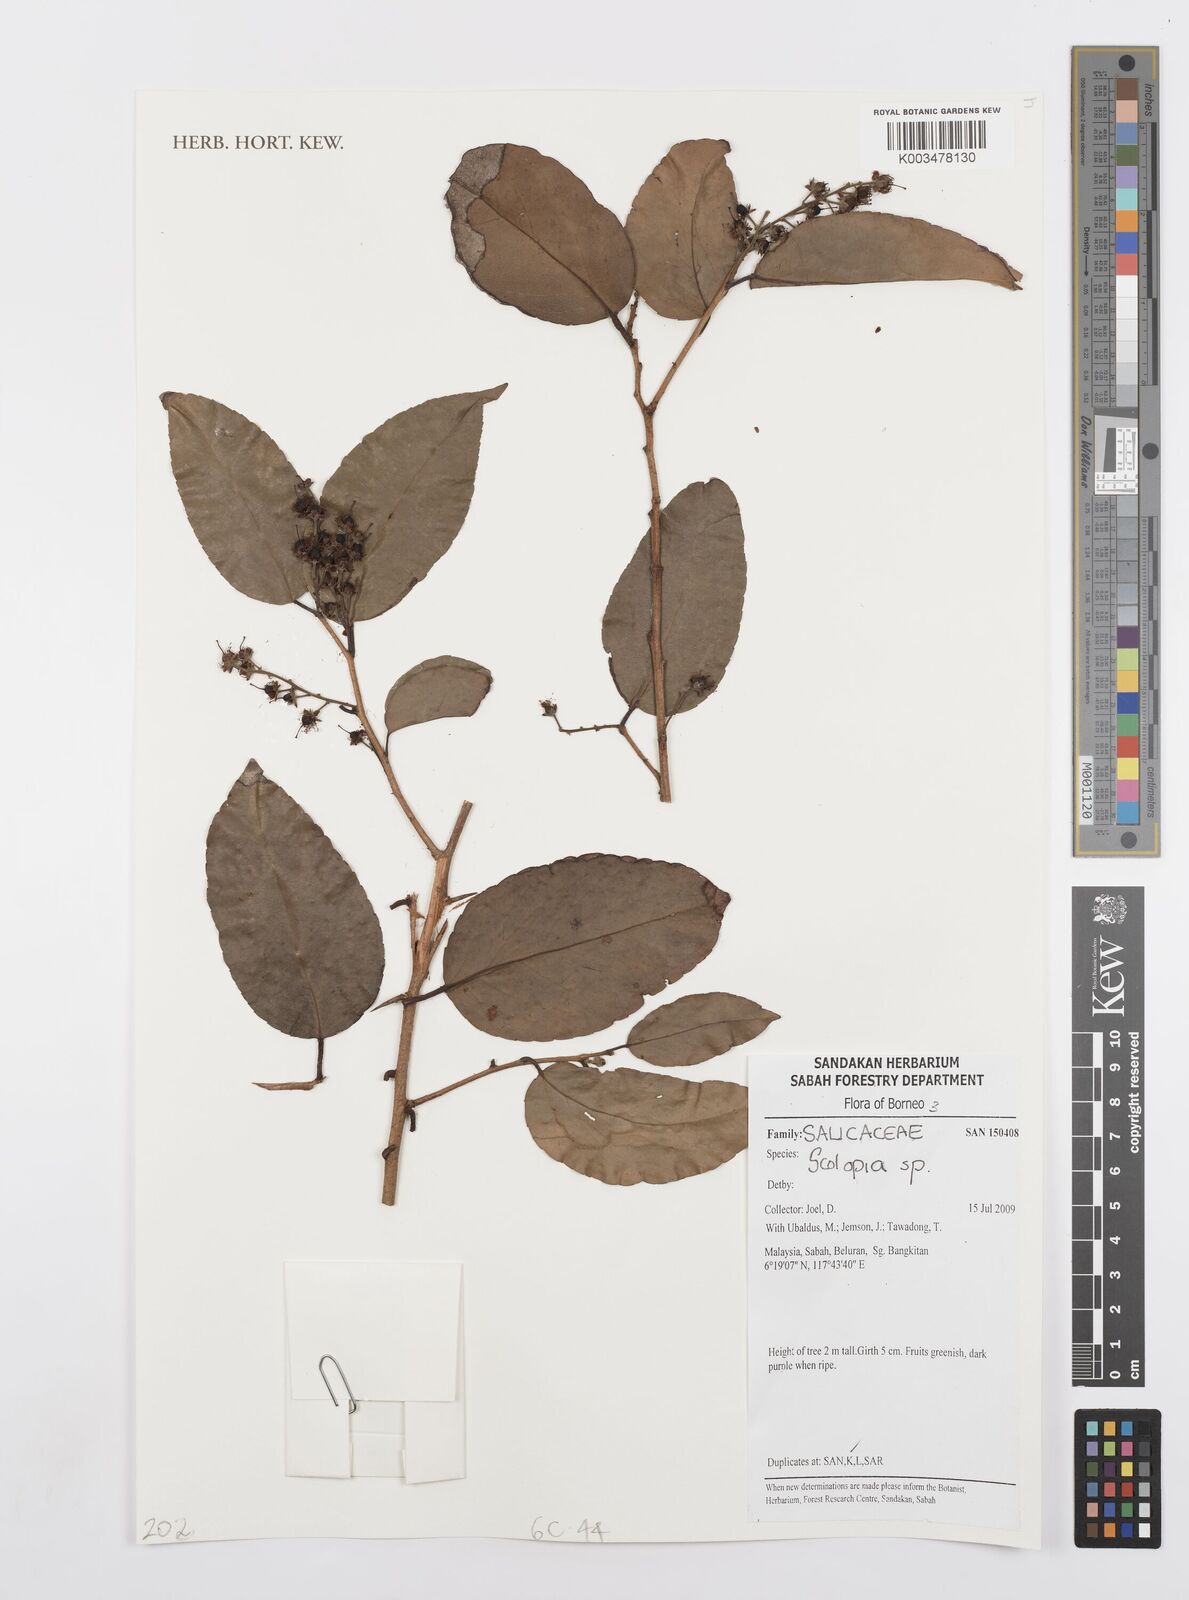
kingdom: Plantae
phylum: Tracheophyta
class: Magnoliopsida
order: Malpighiales
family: Salicaceae
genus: Scolopia
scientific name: Scolopia
